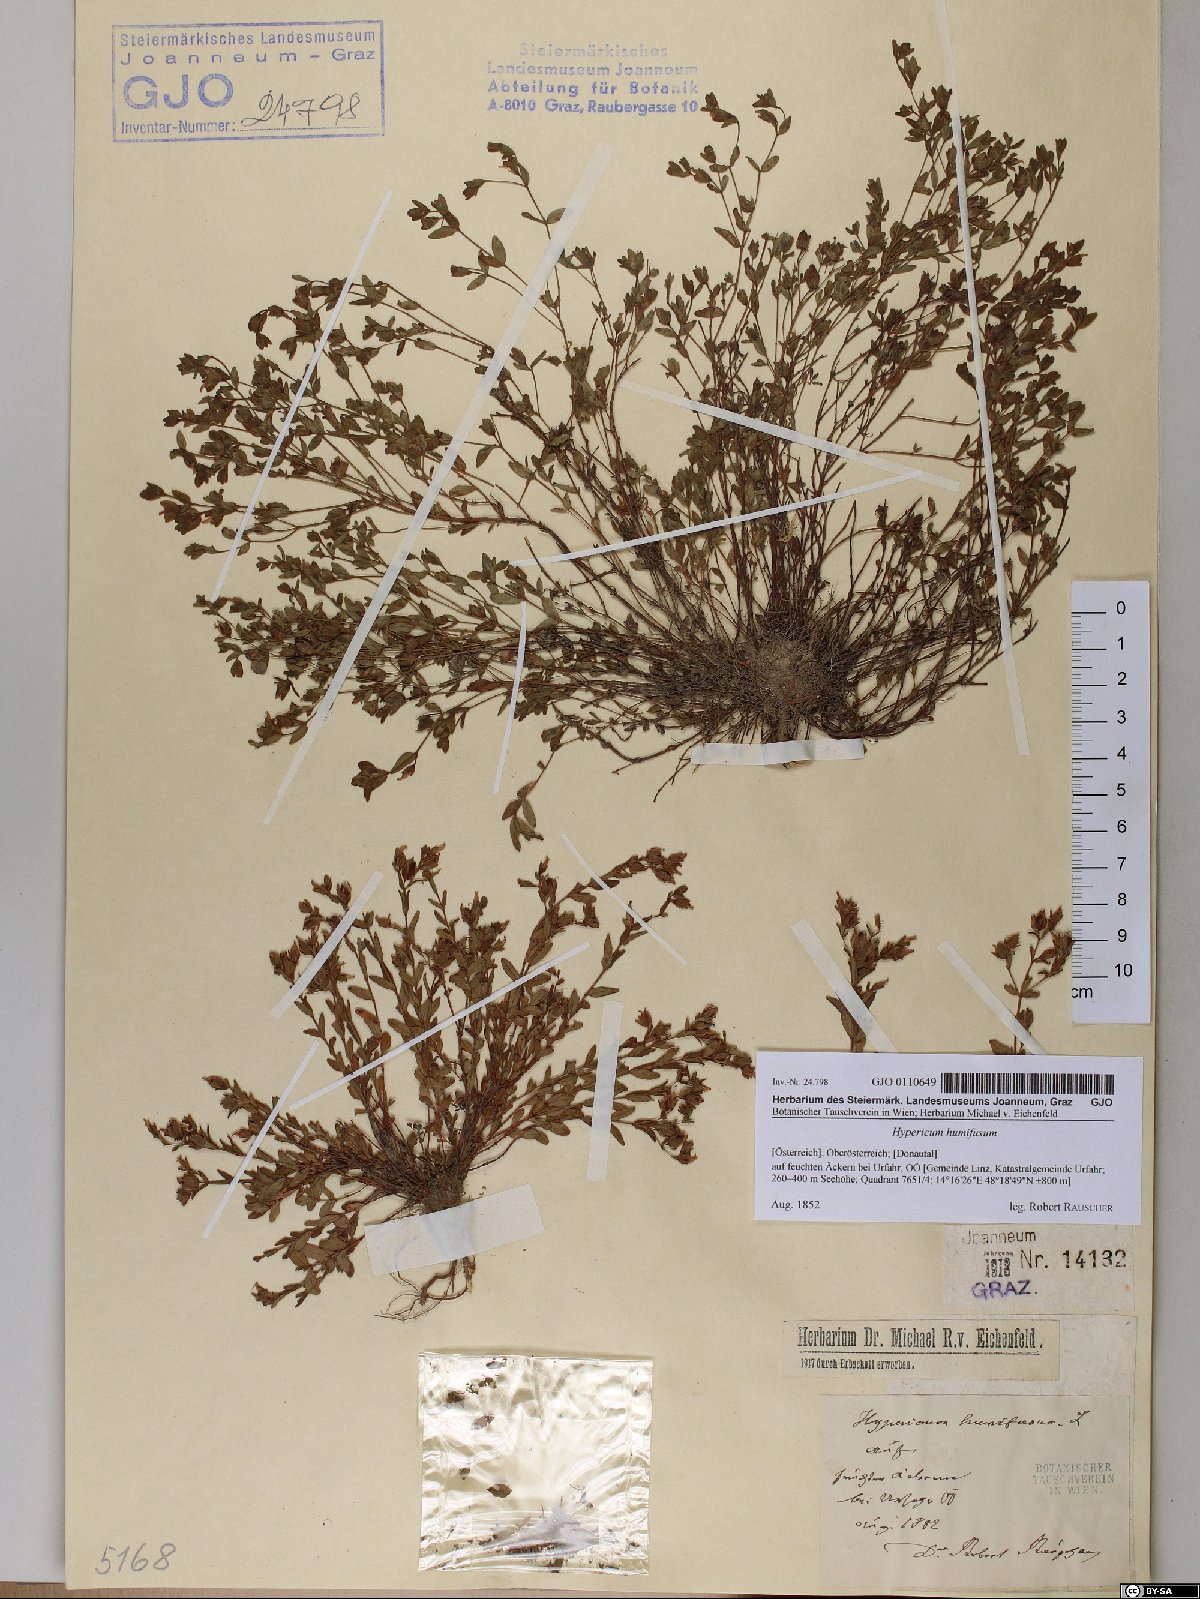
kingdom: Plantae
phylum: Tracheophyta
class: Magnoliopsida
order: Malpighiales
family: Hypericaceae
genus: Hypericum
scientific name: Hypericum humifusum
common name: Trailing st. john's-wort
